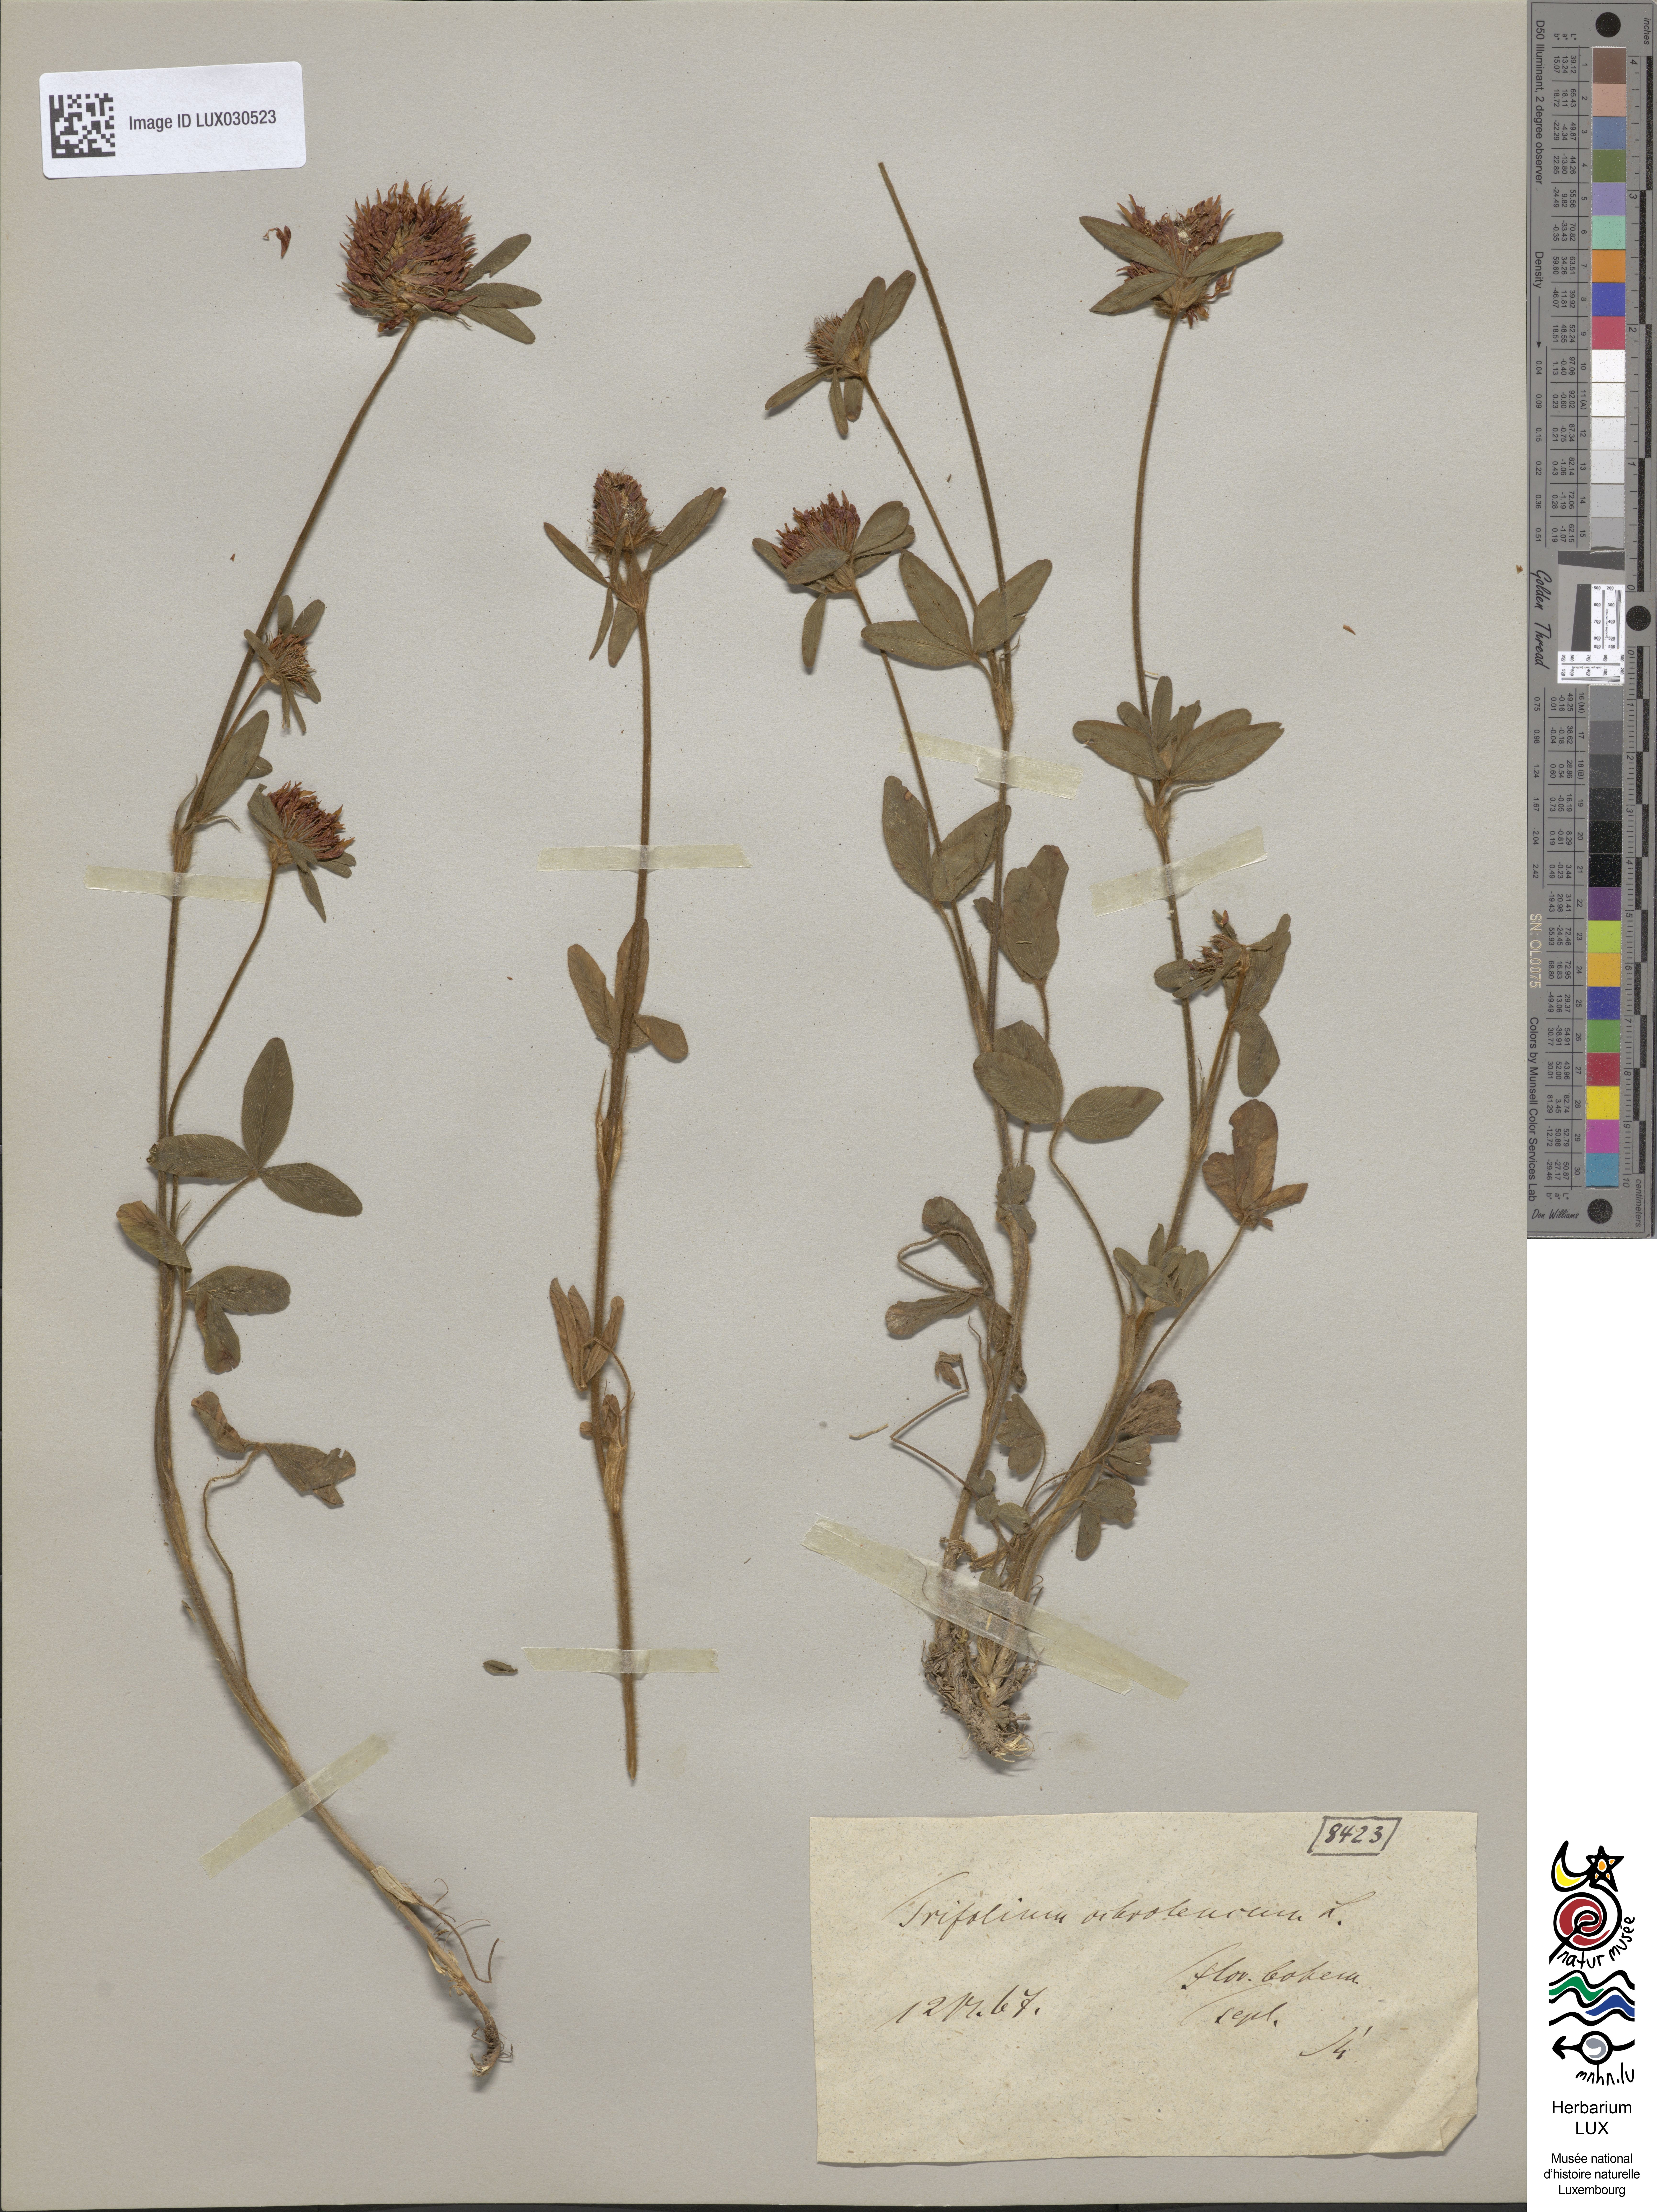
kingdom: Plantae
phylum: Tracheophyta
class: Magnoliopsida
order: Fabales
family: Fabaceae
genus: Trifolium
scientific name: Trifolium ochroleucon
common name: Sulphur clover
